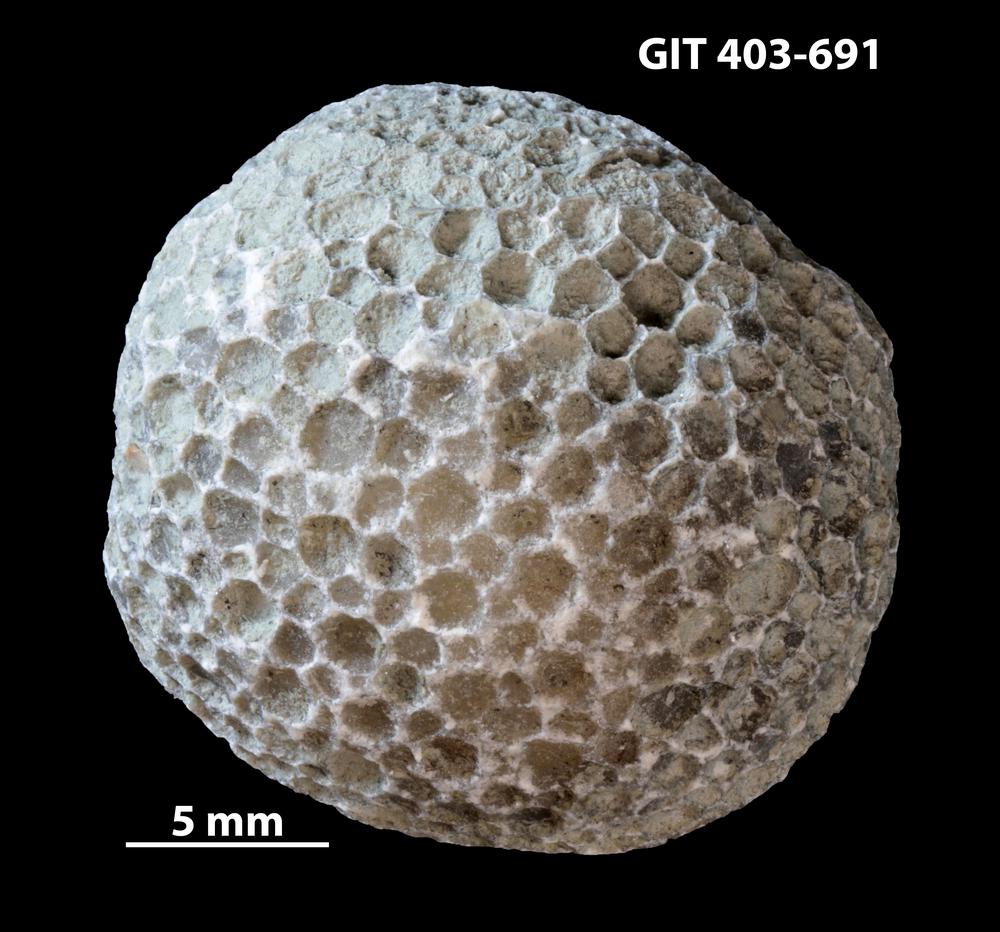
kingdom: Animalia
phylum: Cnidaria
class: Anthozoa
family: Favositidae
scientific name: Favositidae
